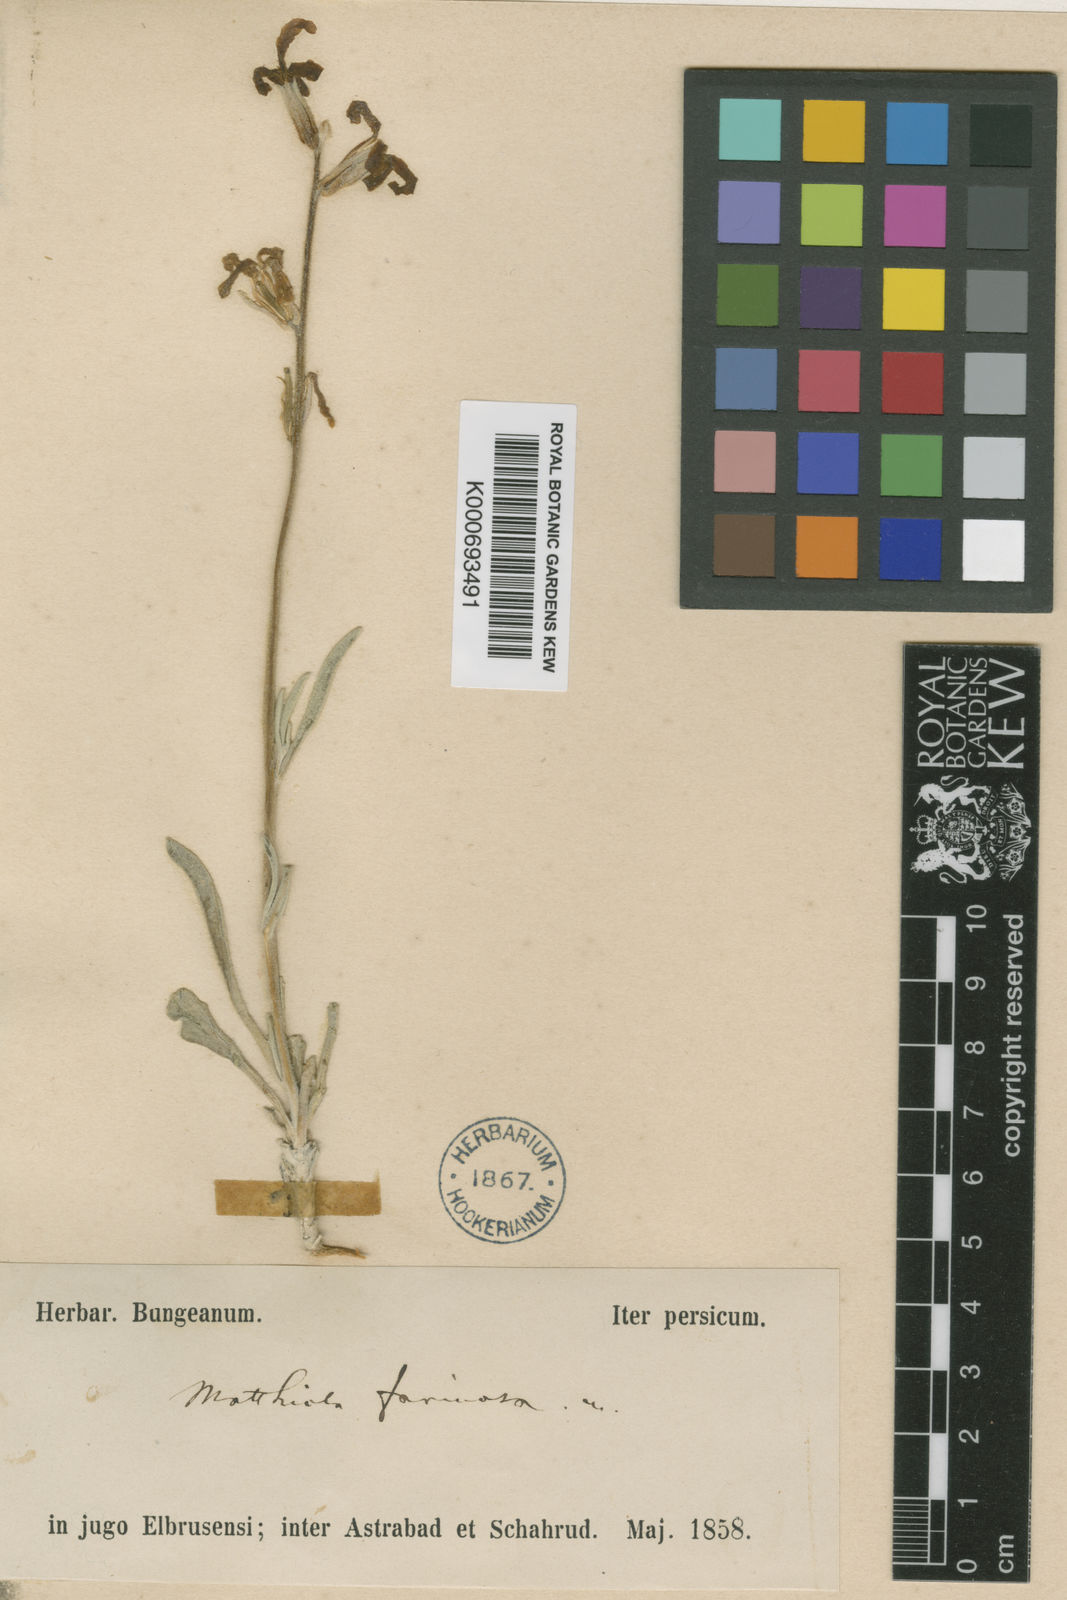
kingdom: Plantae
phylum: Tracheophyta
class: Magnoliopsida
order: Brassicales
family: Brassicaceae
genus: Matthiola
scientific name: Matthiola farinosa
